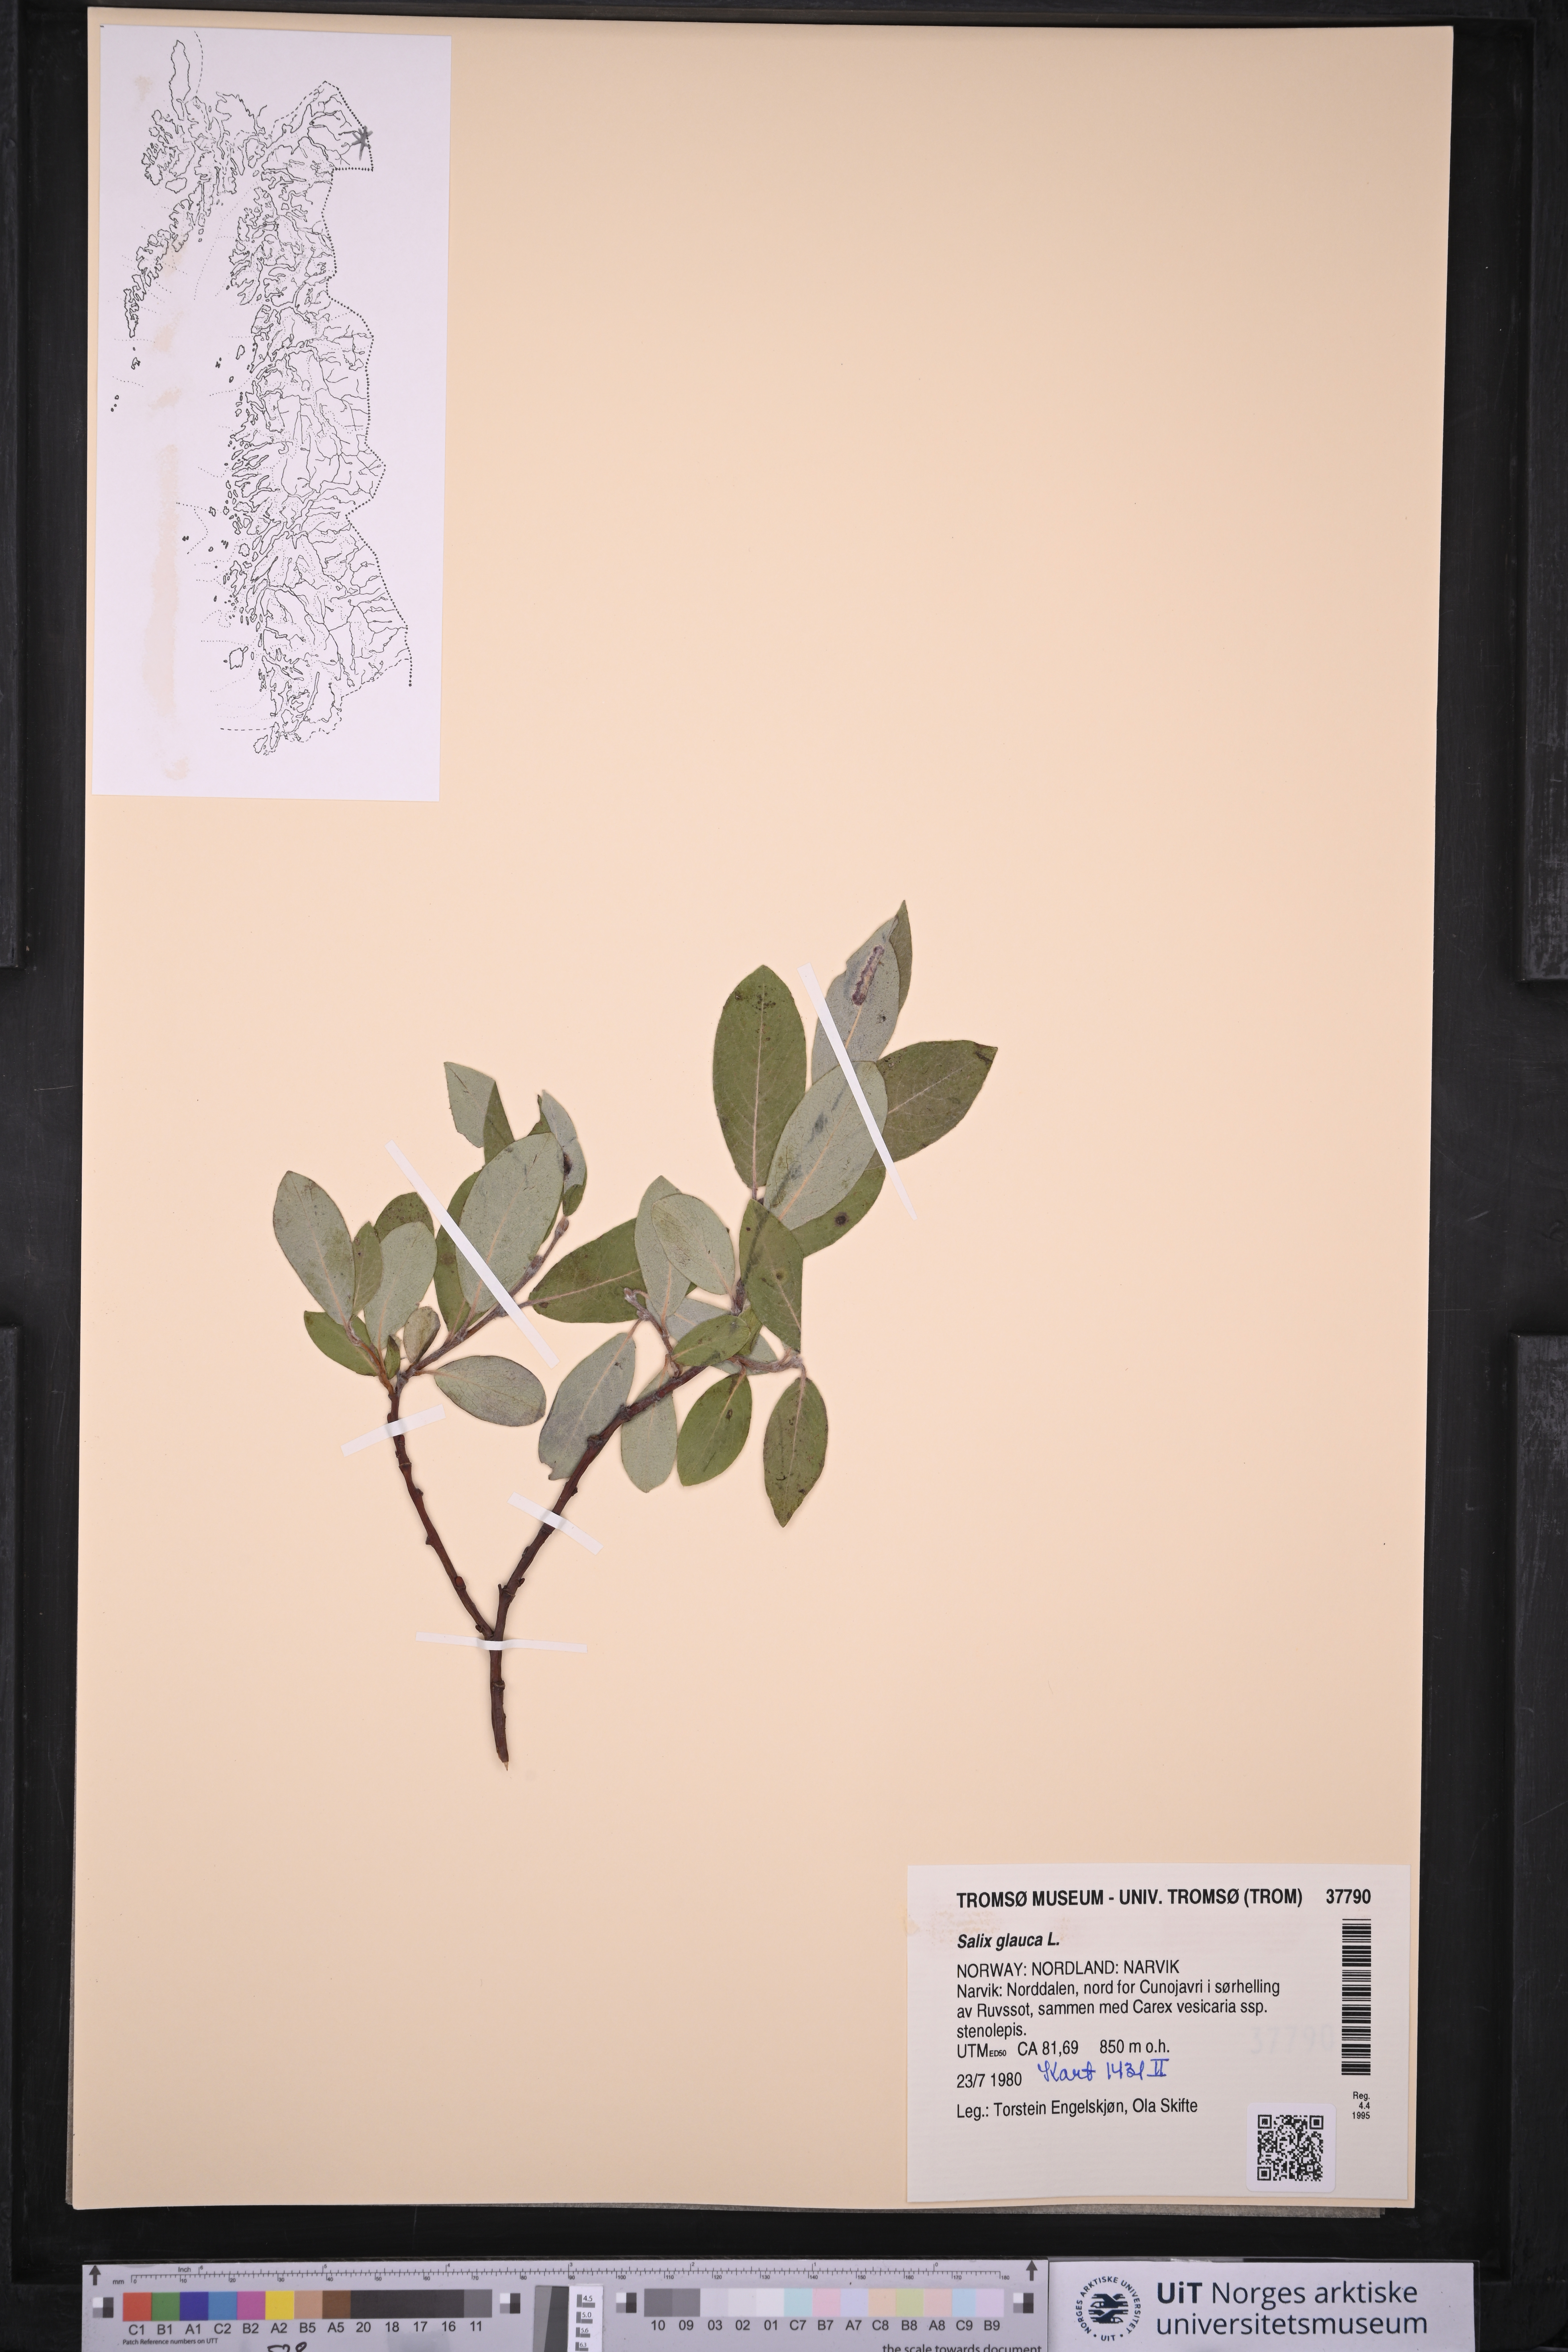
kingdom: Plantae
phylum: Tracheophyta
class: Magnoliopsida
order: Malpighiales
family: Salicaceae
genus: Salix
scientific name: Salix glauca
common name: Glaucous willow
